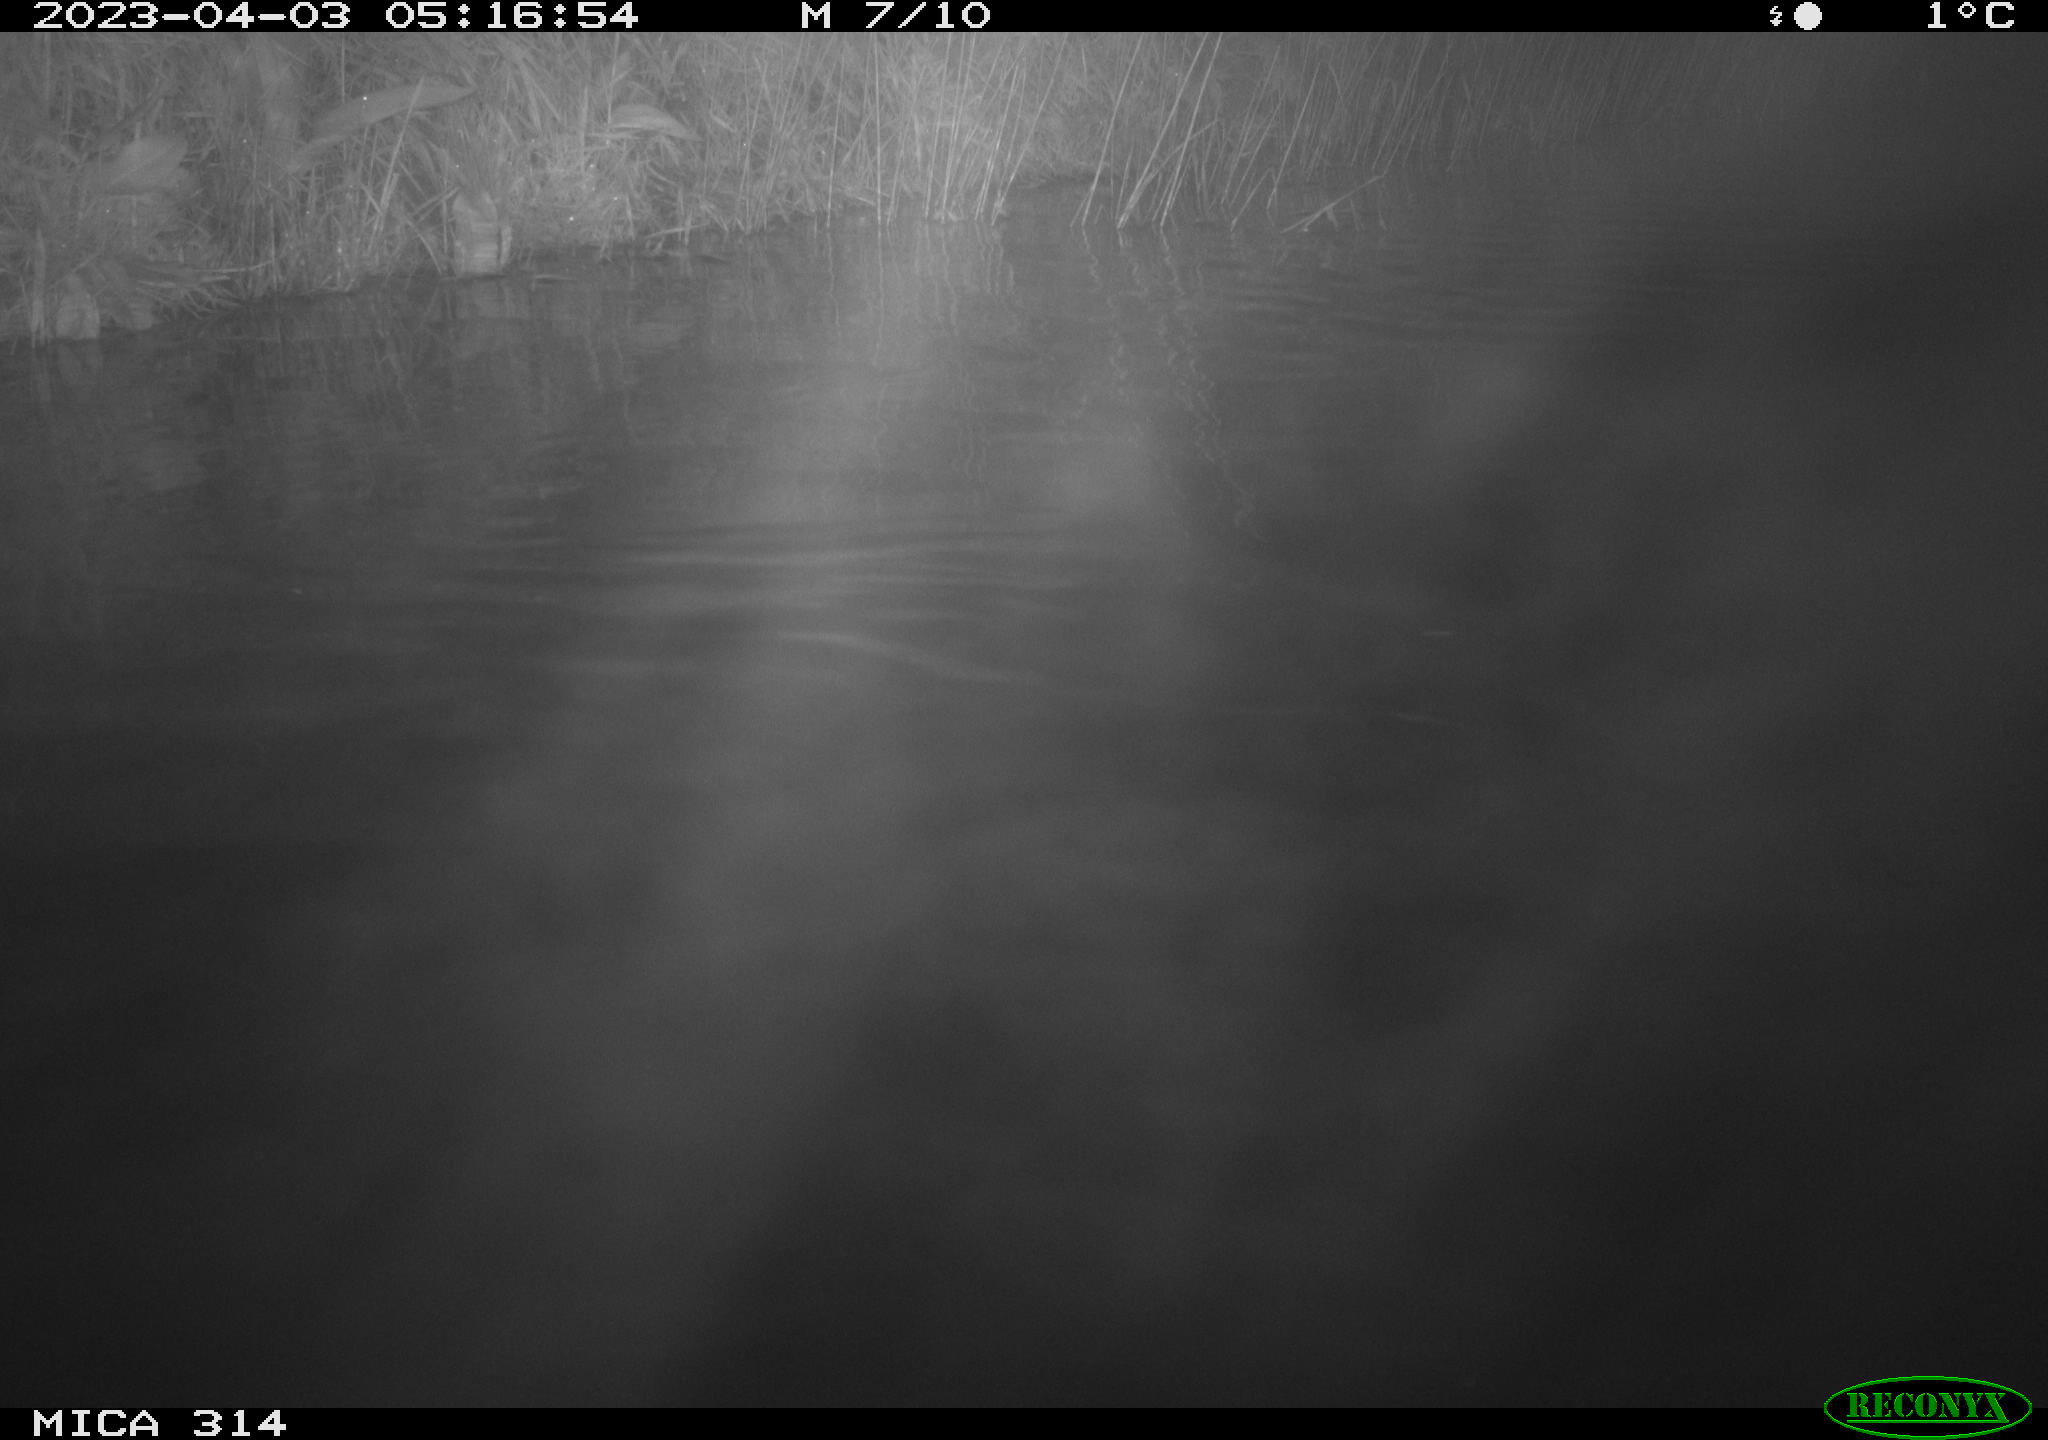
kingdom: Animalia
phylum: Chordata
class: Aves
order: Anseriformes
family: Anatidae
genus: Anas
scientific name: Anas
